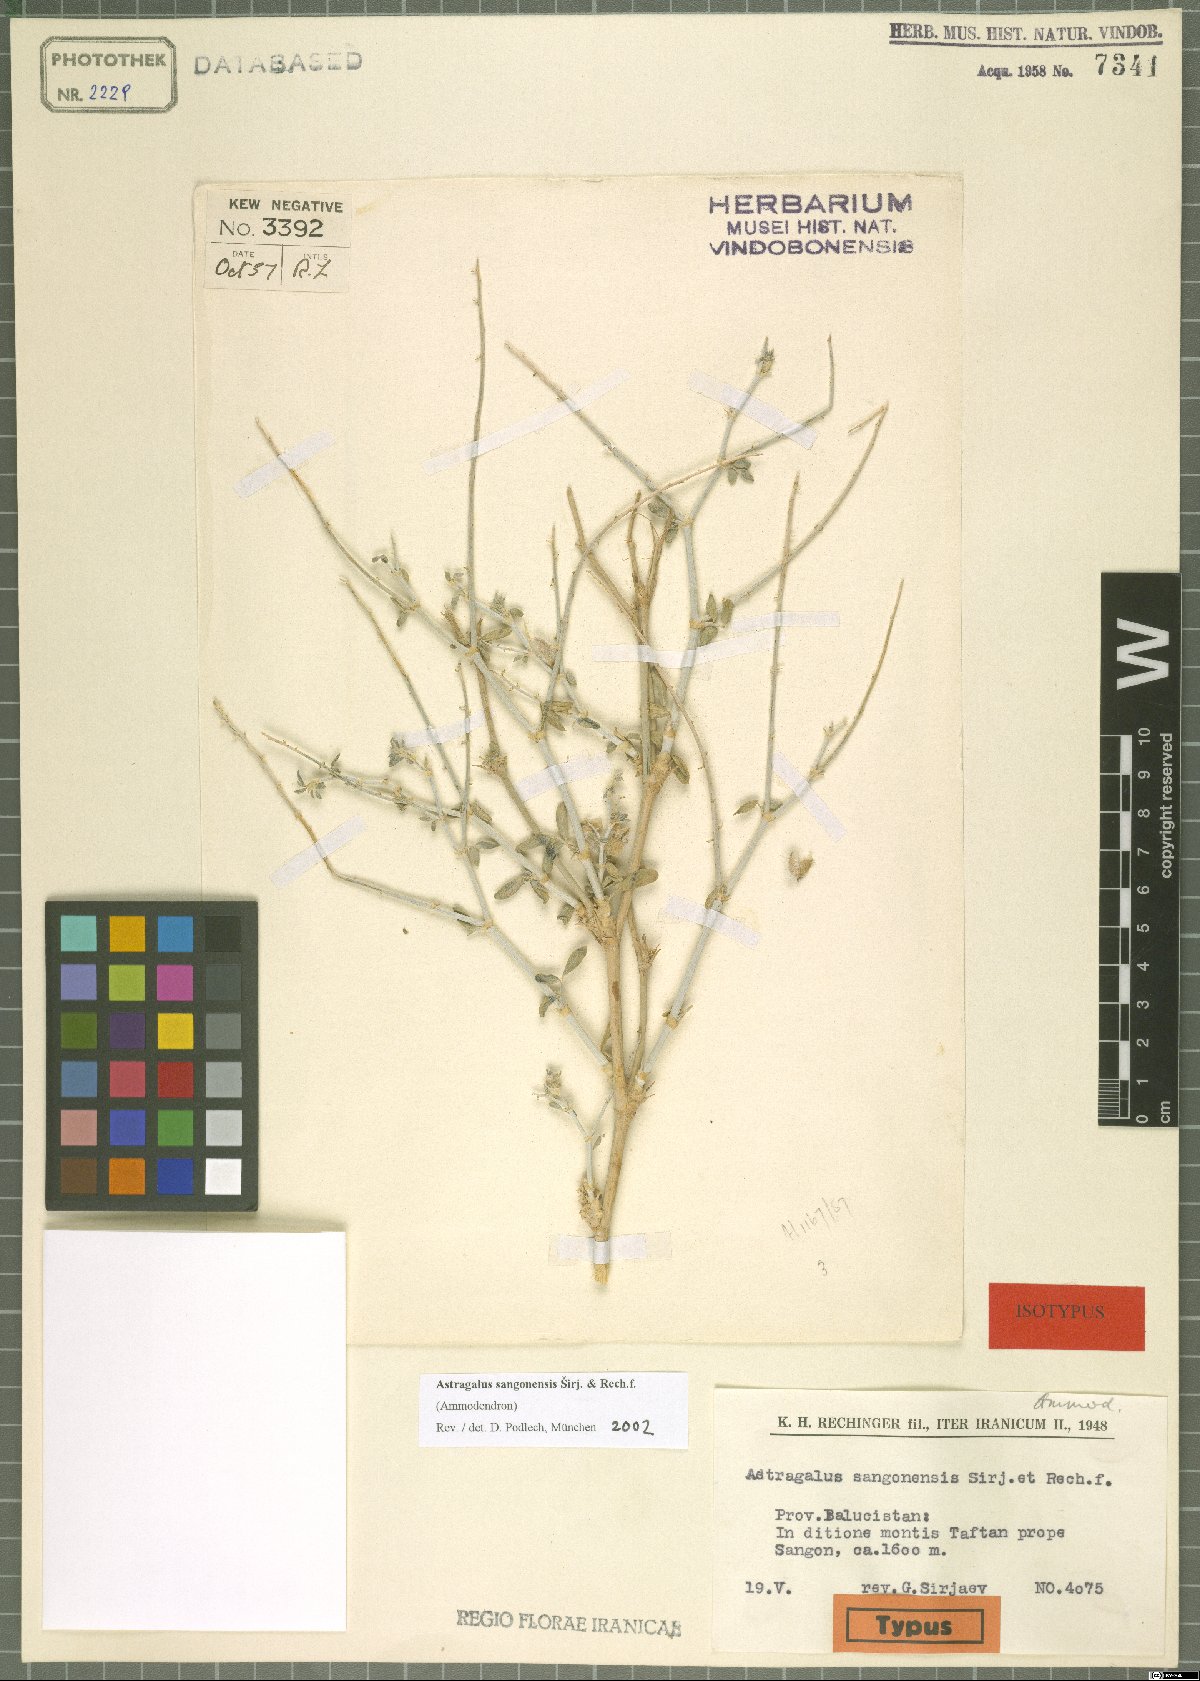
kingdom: Plantae
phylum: Tracheophyta
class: Magnoliopsida
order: Fabales
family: Fabaceae
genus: Astragalus
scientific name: Astragalus sangonensis
